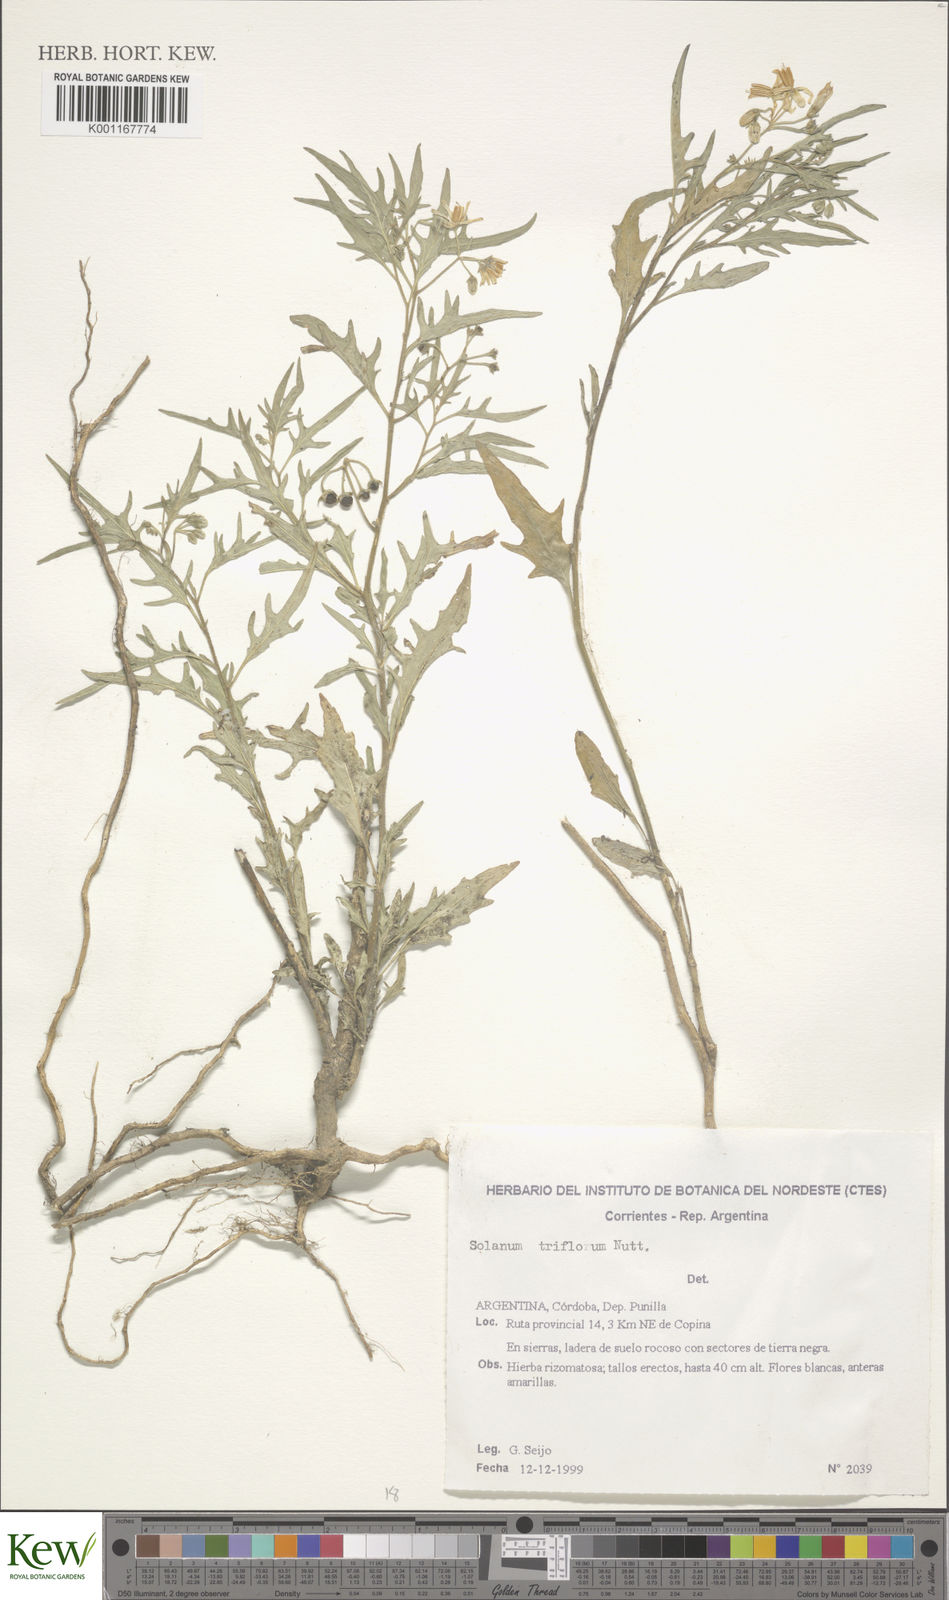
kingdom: Plantae
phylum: Tracheophyta
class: Magnoliopsida
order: Solanales
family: Solanaceae
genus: Solanum
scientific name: Solanum salicifolium
